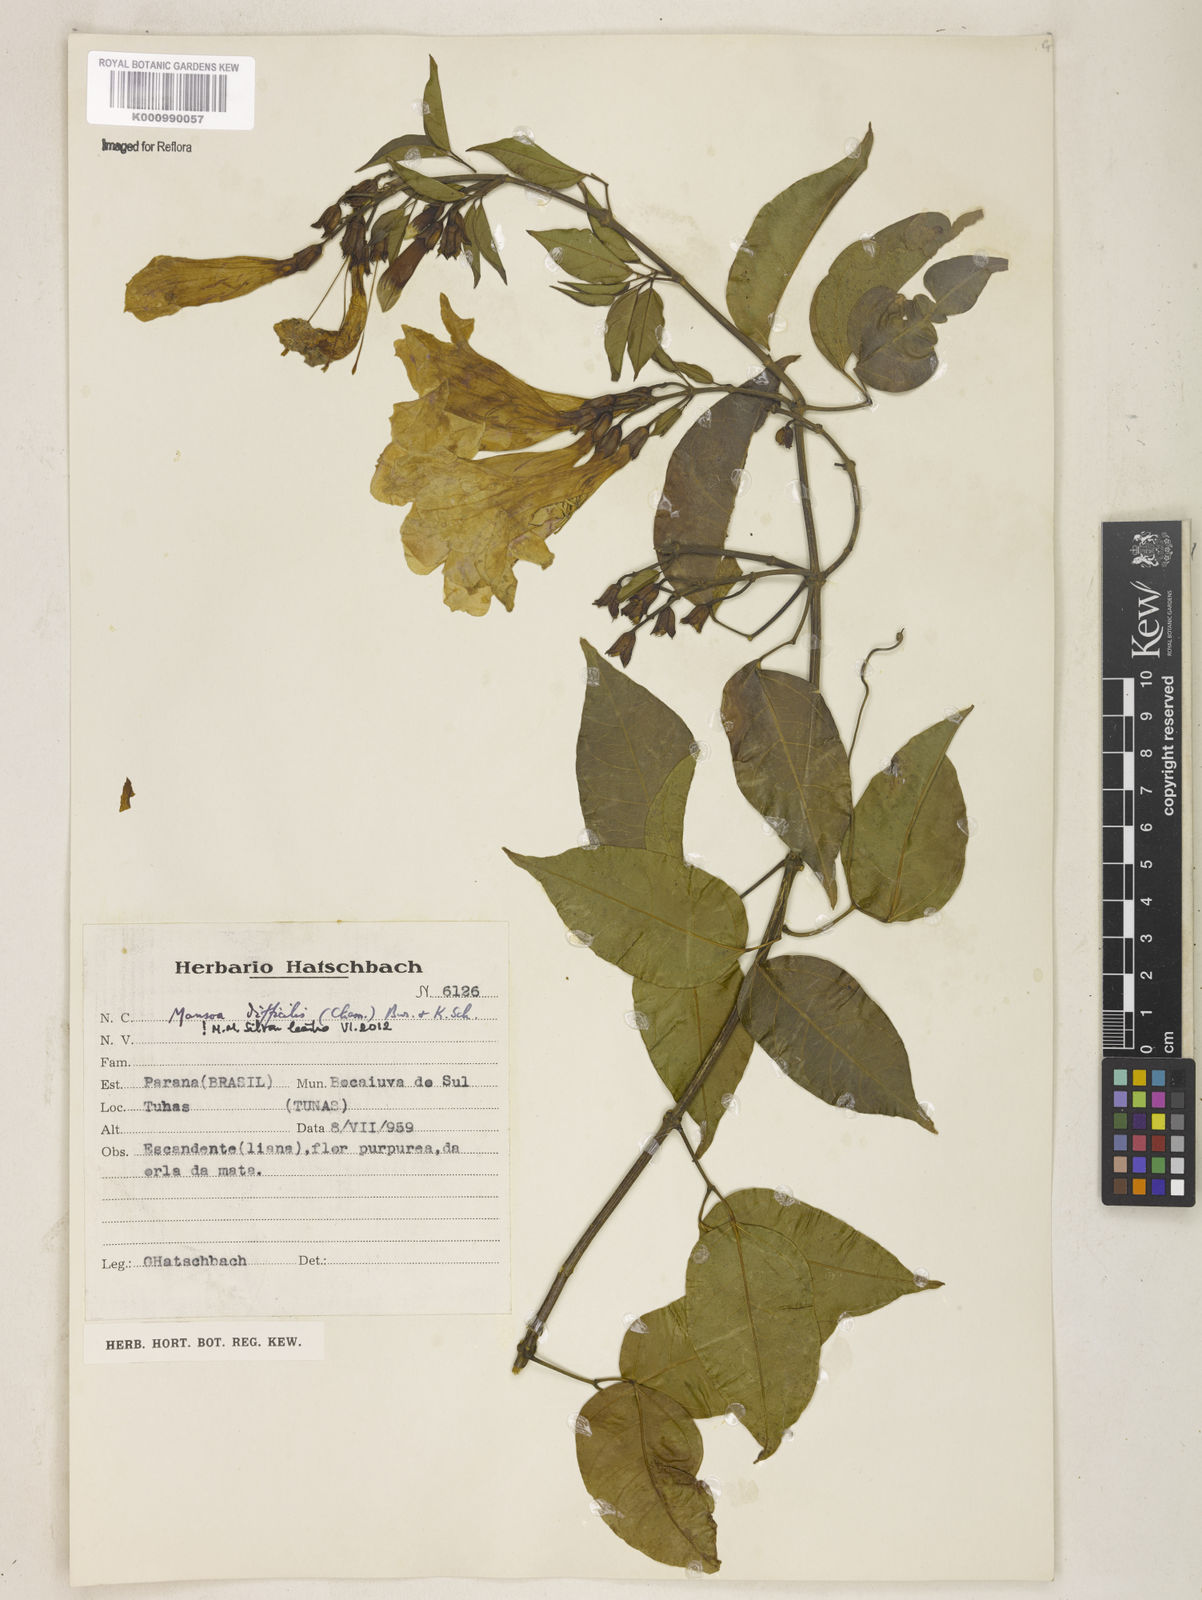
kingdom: Plantae
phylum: Tracheophyta
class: Magnoliopsida
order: Lamiales
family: Bignoniaceae
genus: Mansoa
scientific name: Mansoa difficilis
